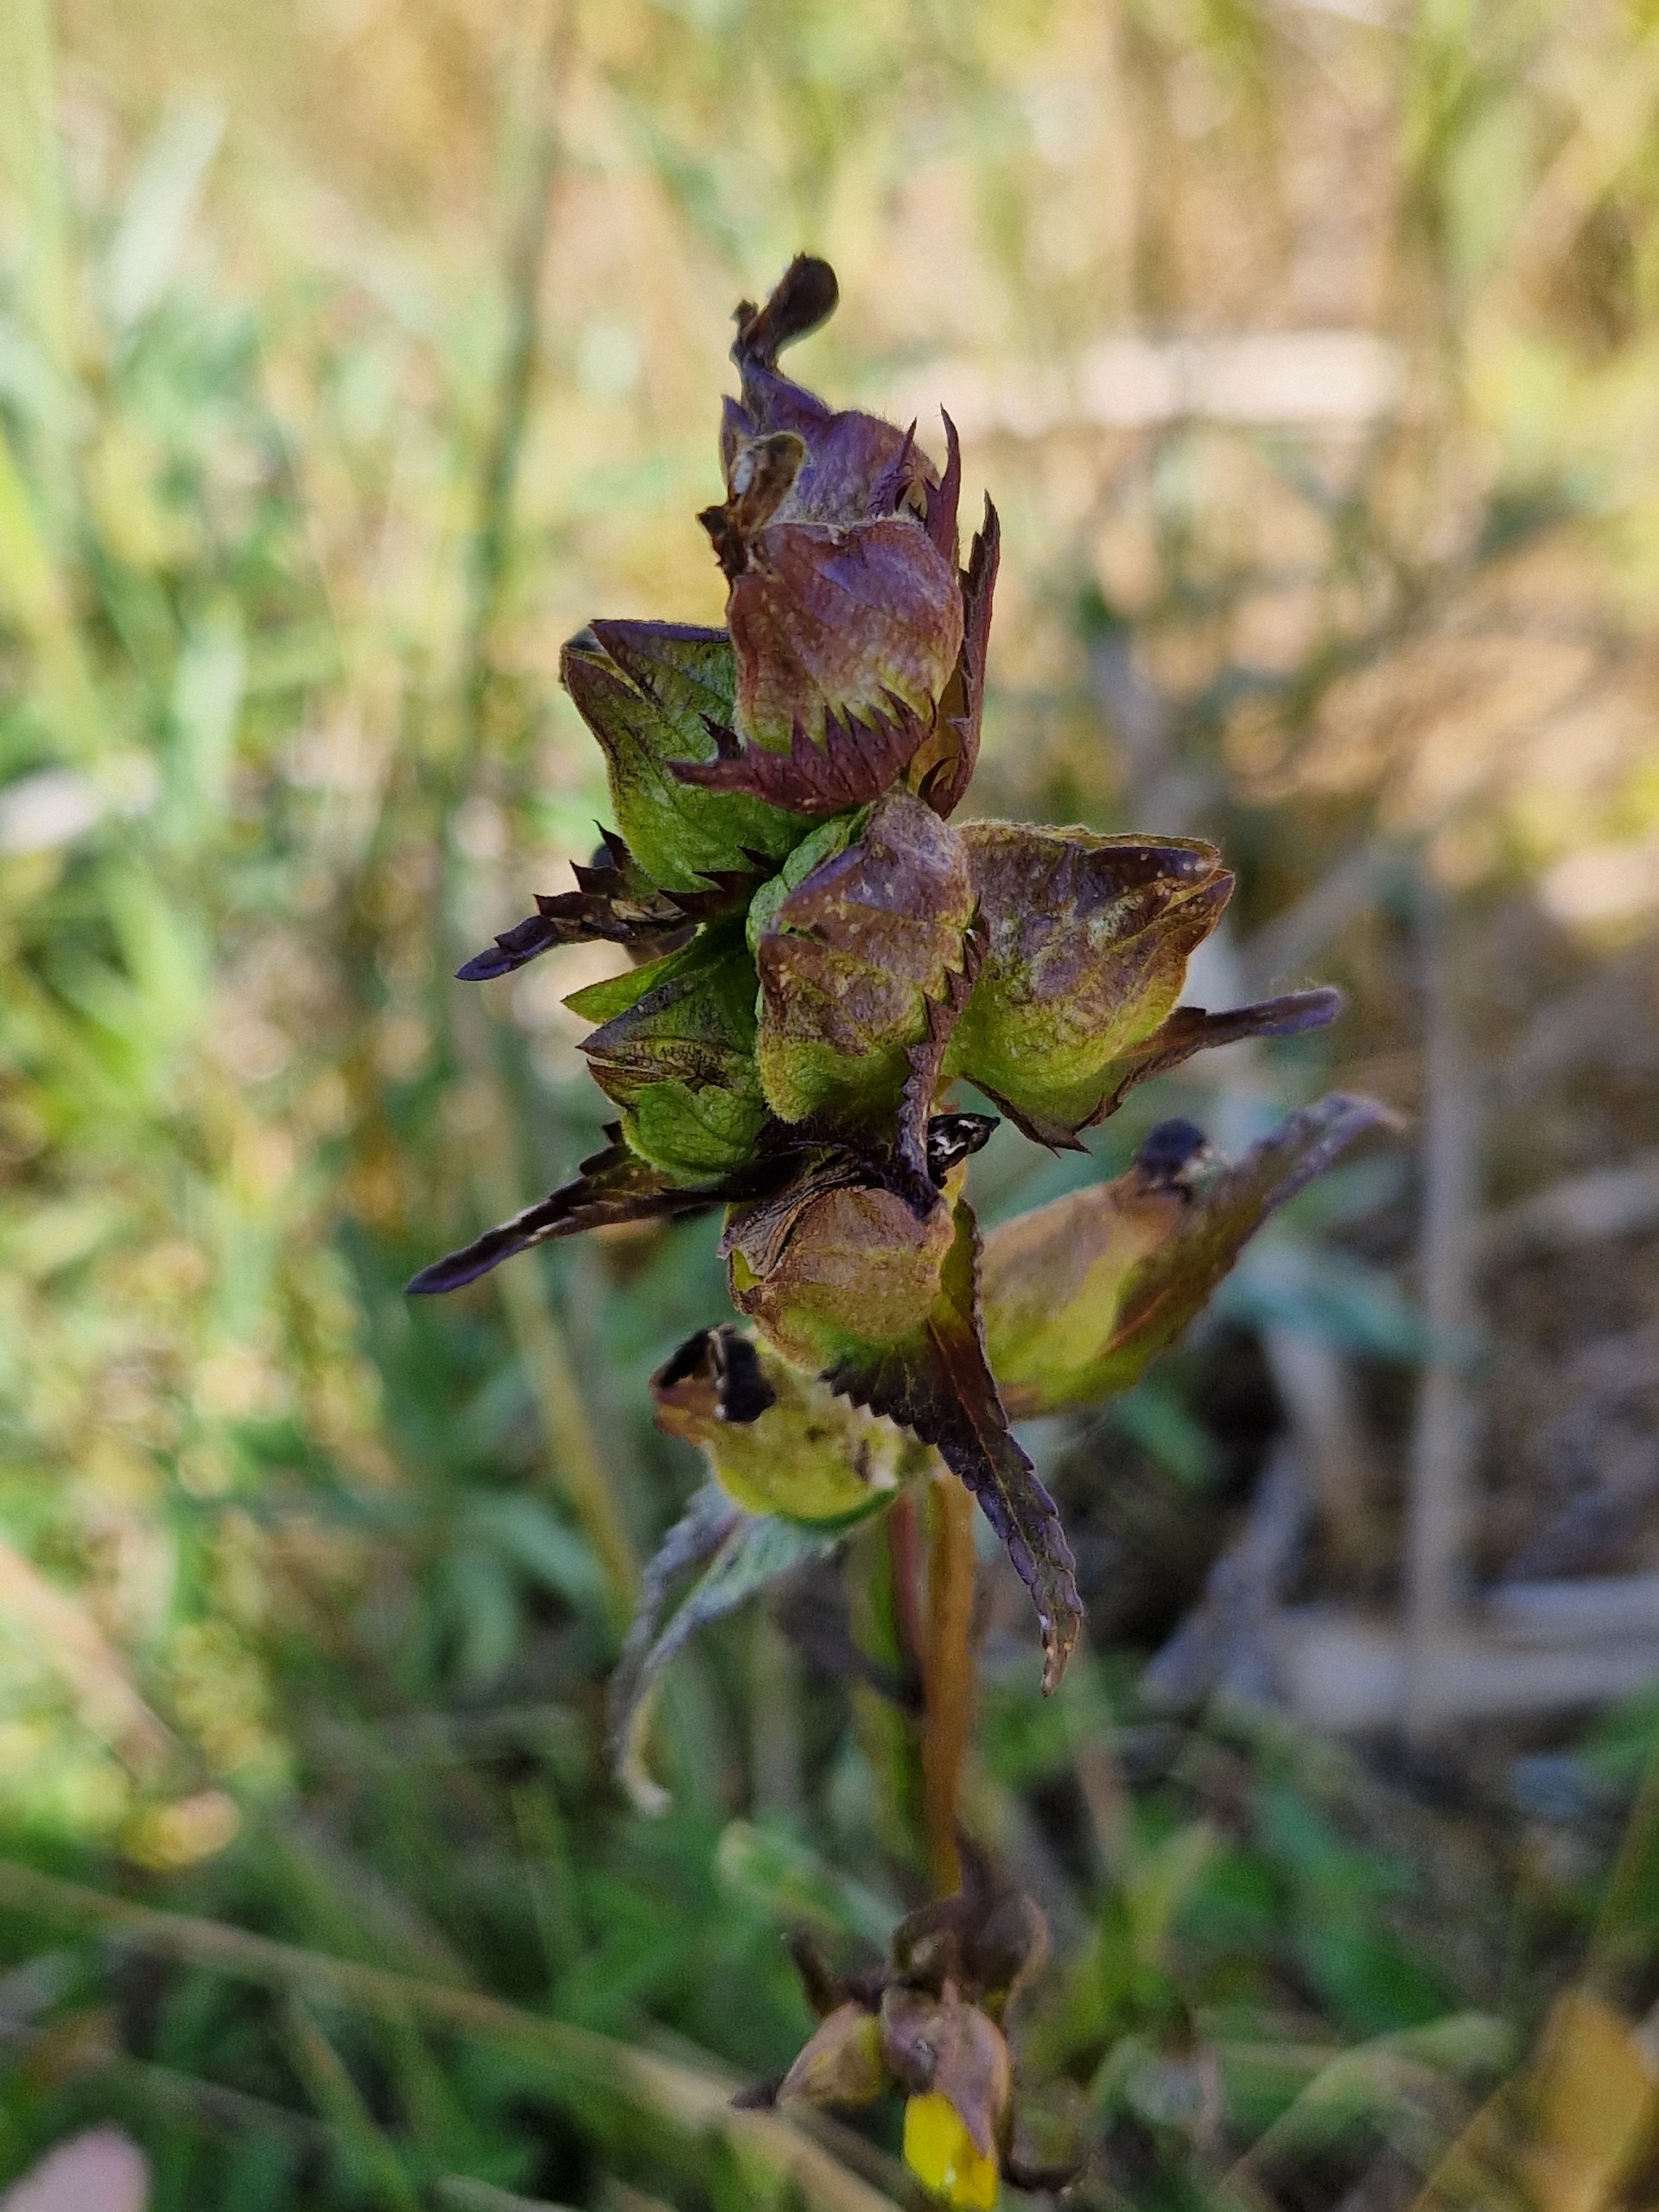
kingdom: Plantae
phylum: Tracheophyta
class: Magnoliopsida
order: Lamiales
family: Orobanchaceae
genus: Rhinanthus
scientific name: Rhinanthus minor
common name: Liden skjaller
